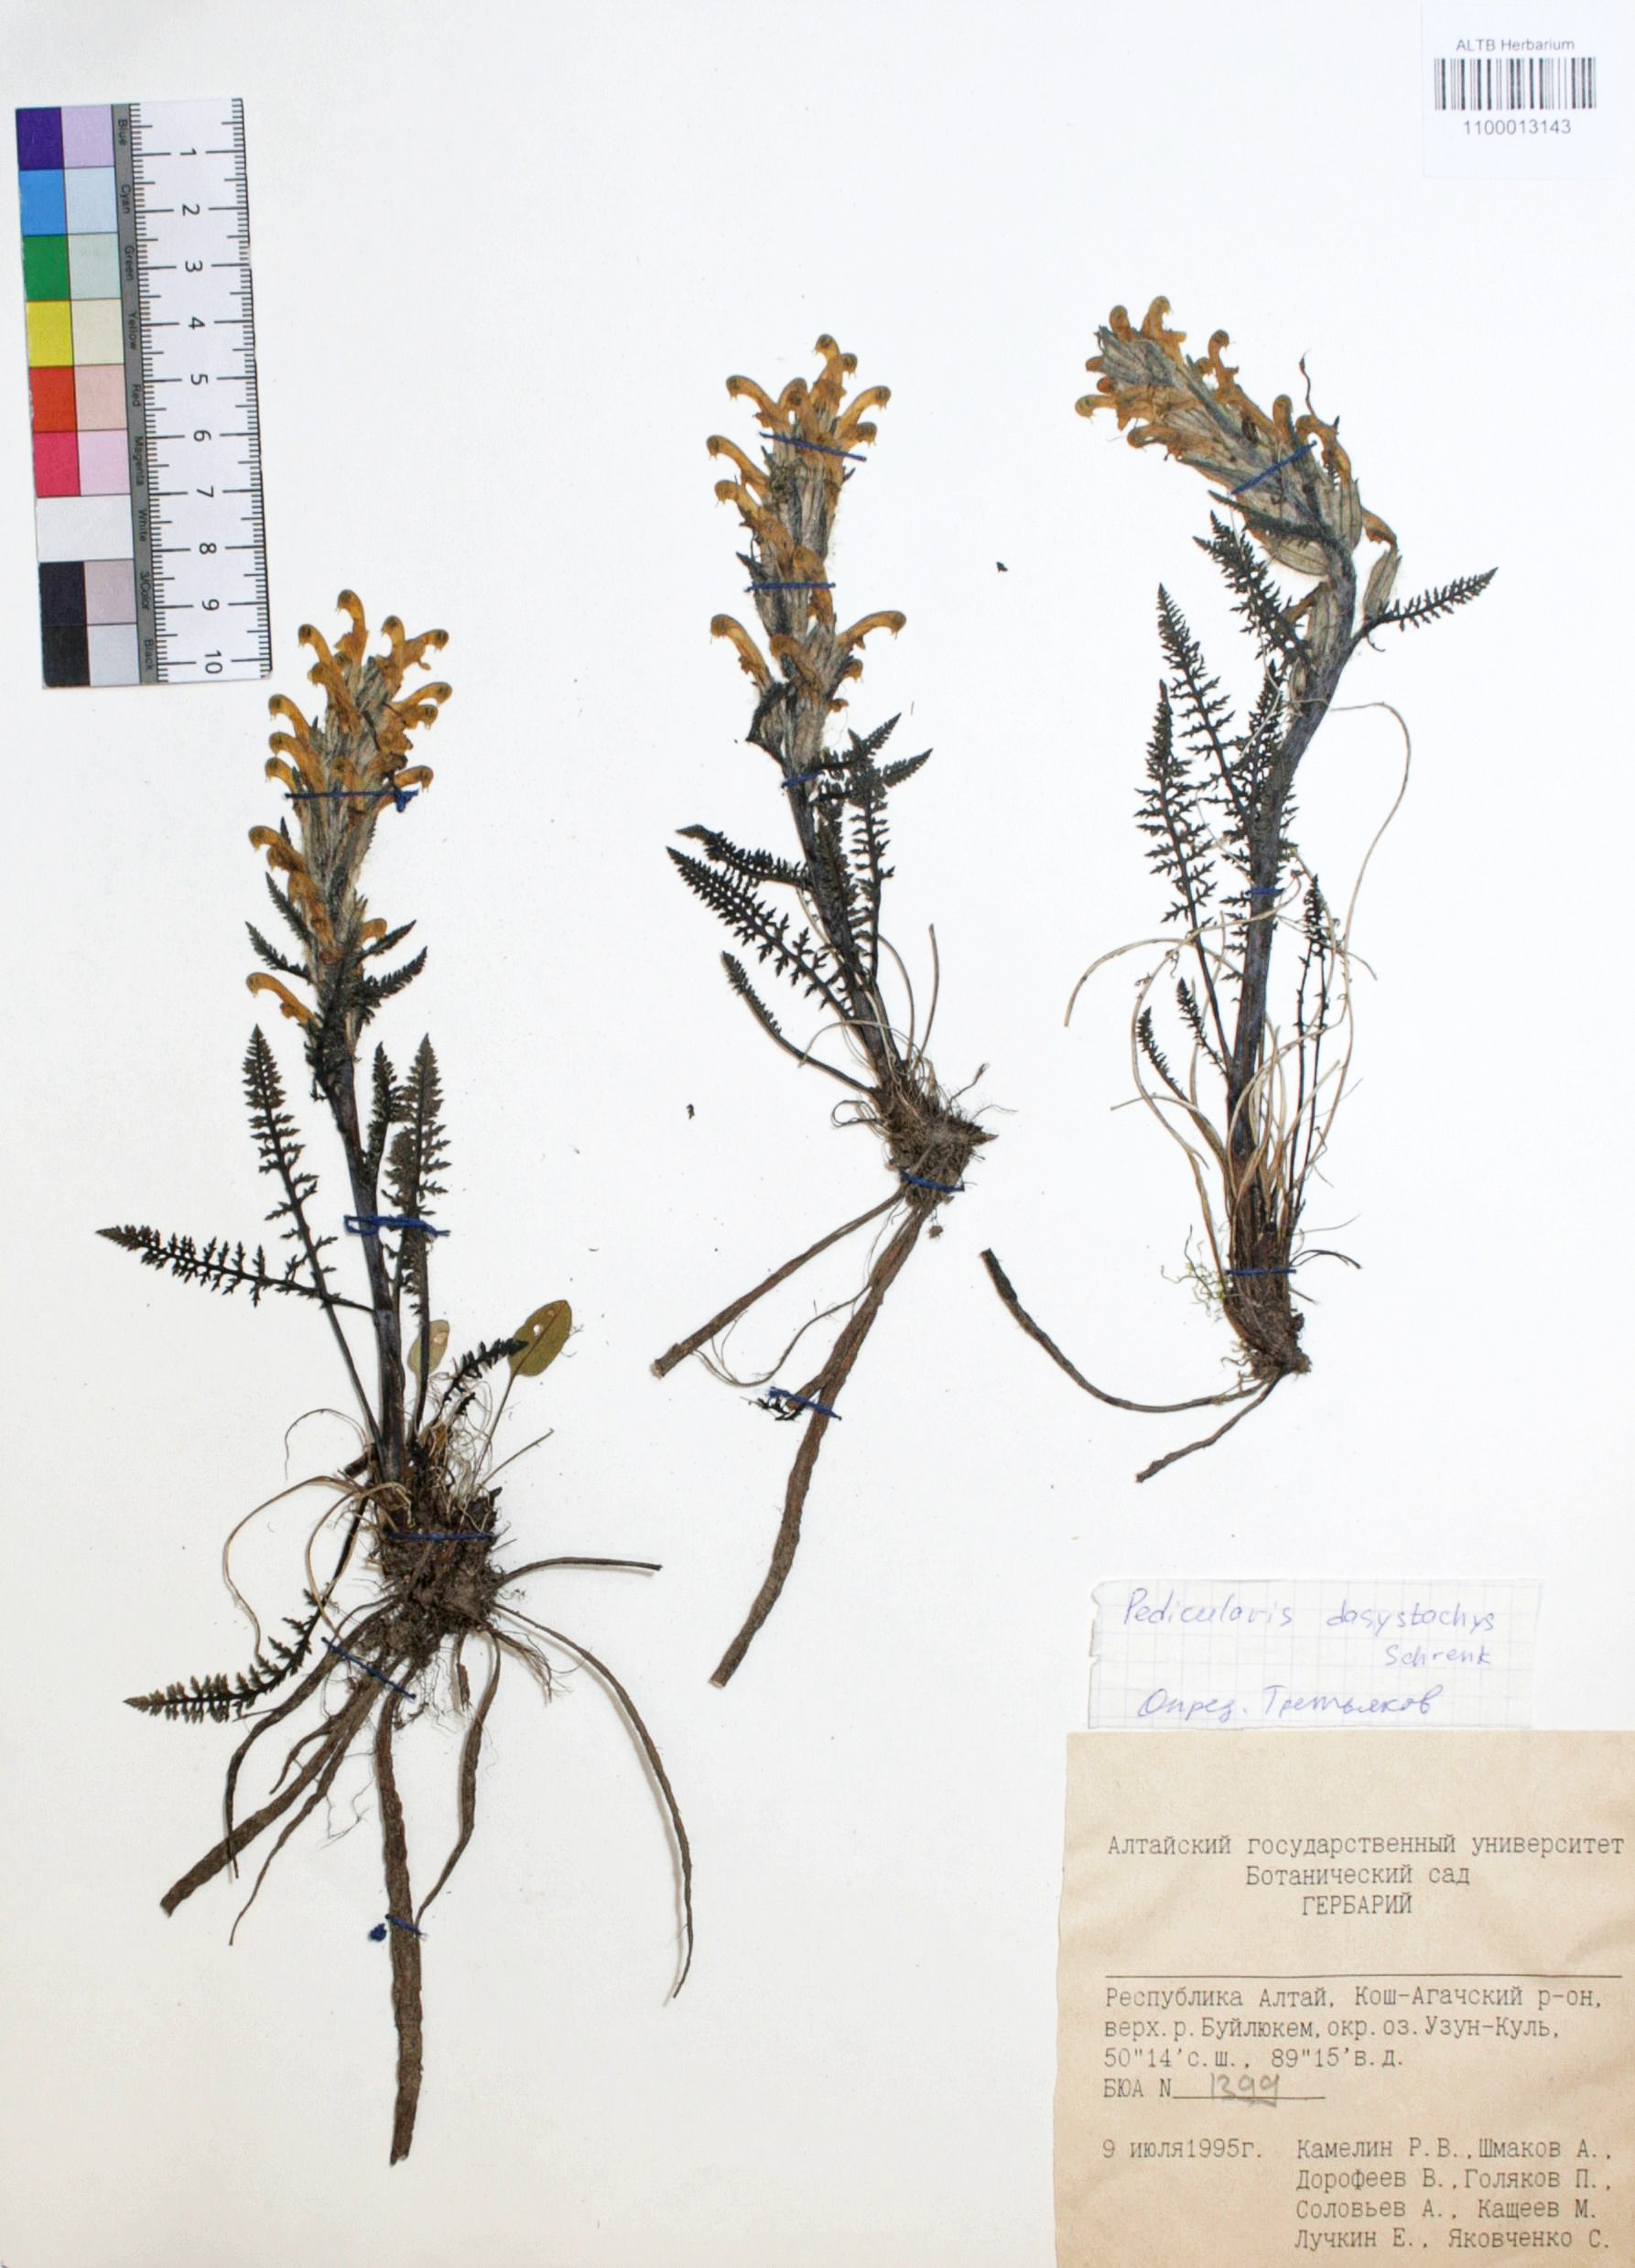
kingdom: Plantae
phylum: Tracheophyta
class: Magnoliopsida
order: Lamiales
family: Orobanchaceae
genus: Pedicularis
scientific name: Pedicularis dasystachys
